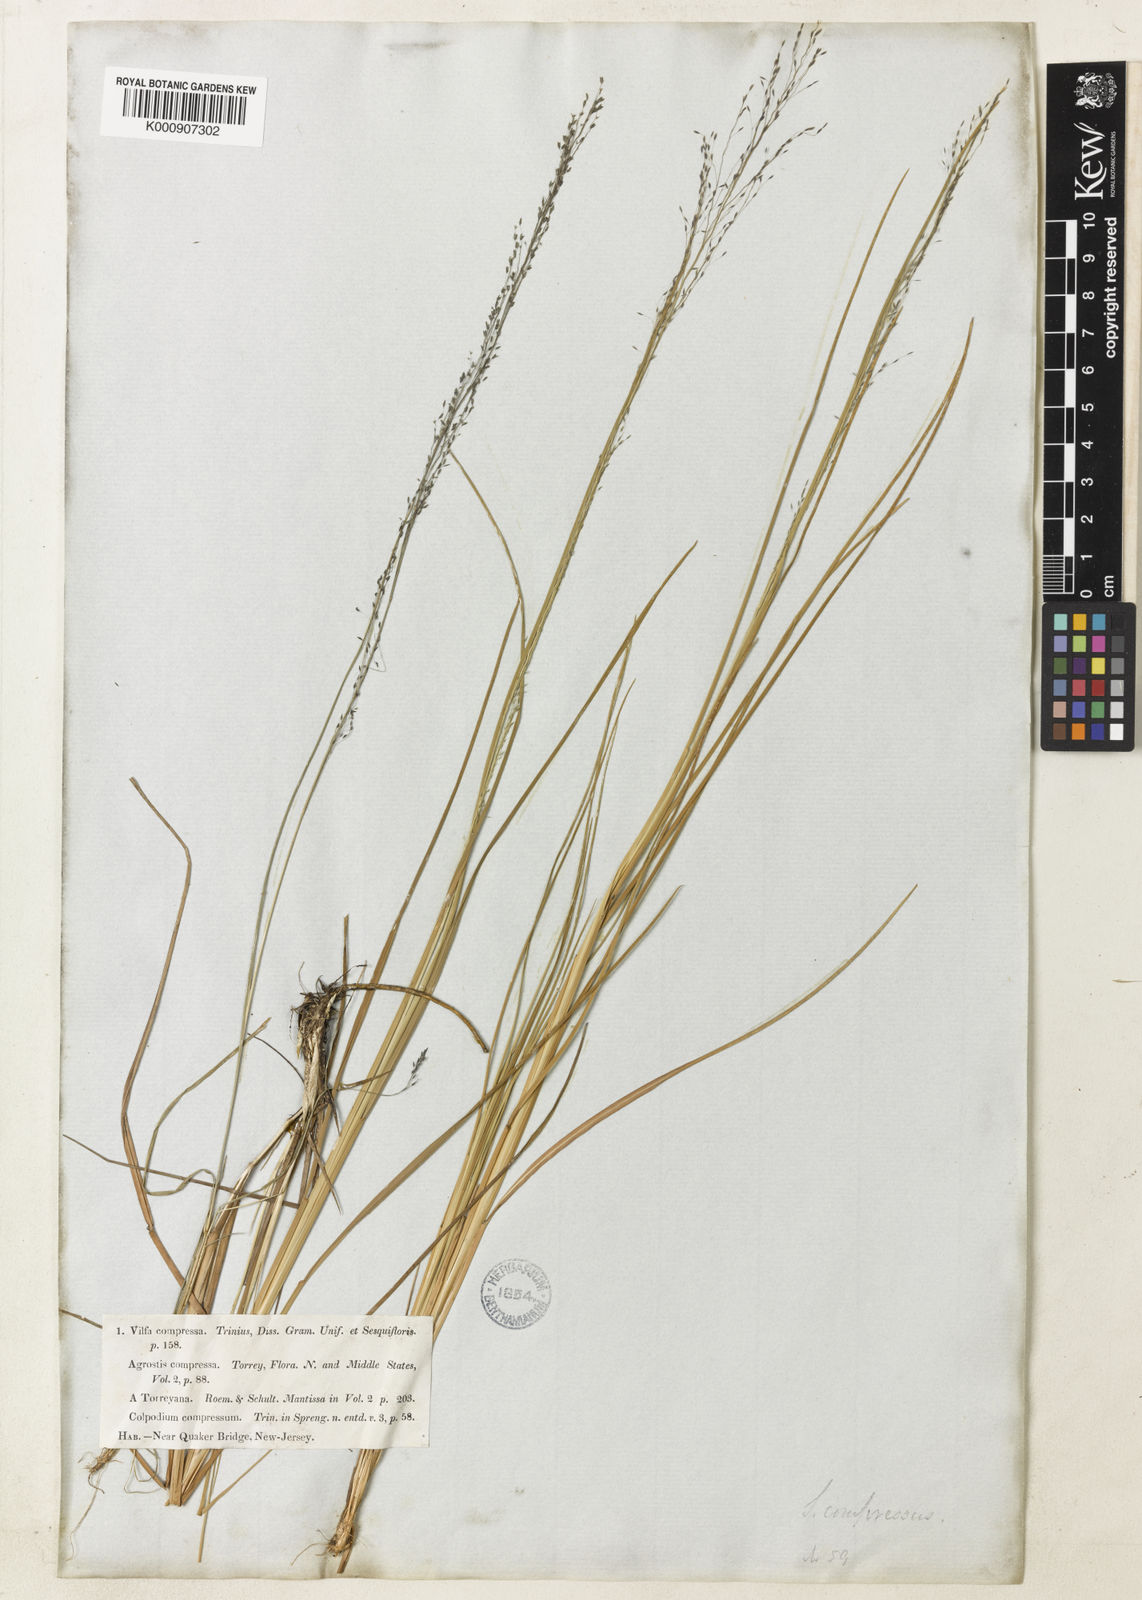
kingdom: Plantae
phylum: Tracheophyta
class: Liliopsida
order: Poales
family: Poaceae
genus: Muhlenbergia
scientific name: Muhlenbergia uniflora
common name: Bog muhly
